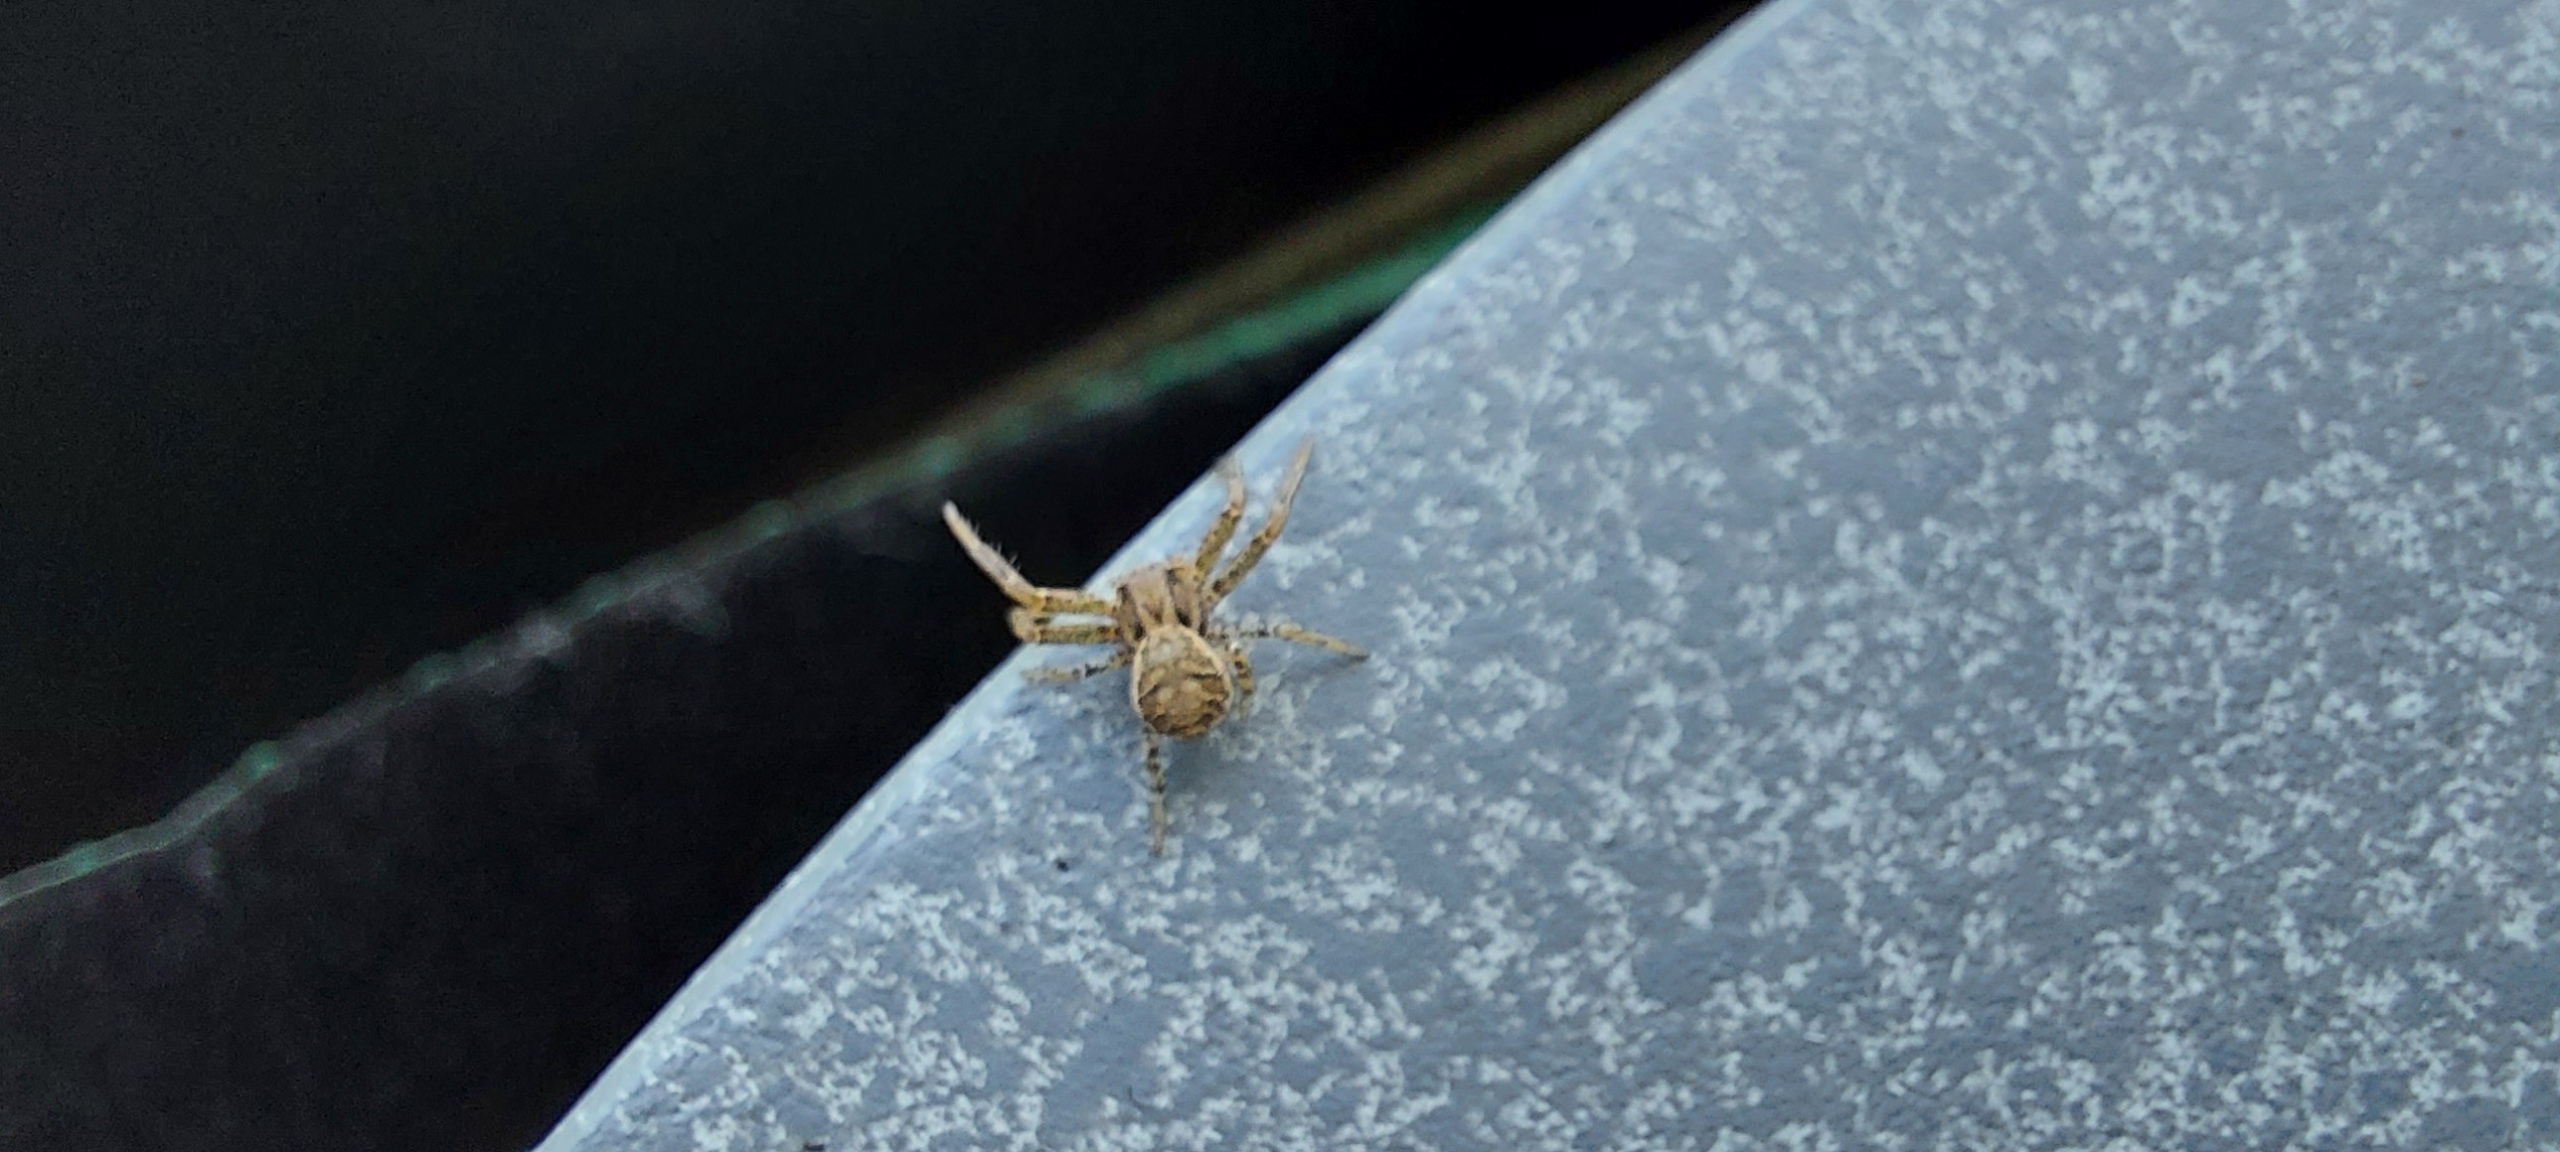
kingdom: Animalia
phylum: Arthropoda
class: Arachnida
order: Araneae
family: Thomisidae
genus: Xysticus
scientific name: Xysticus
